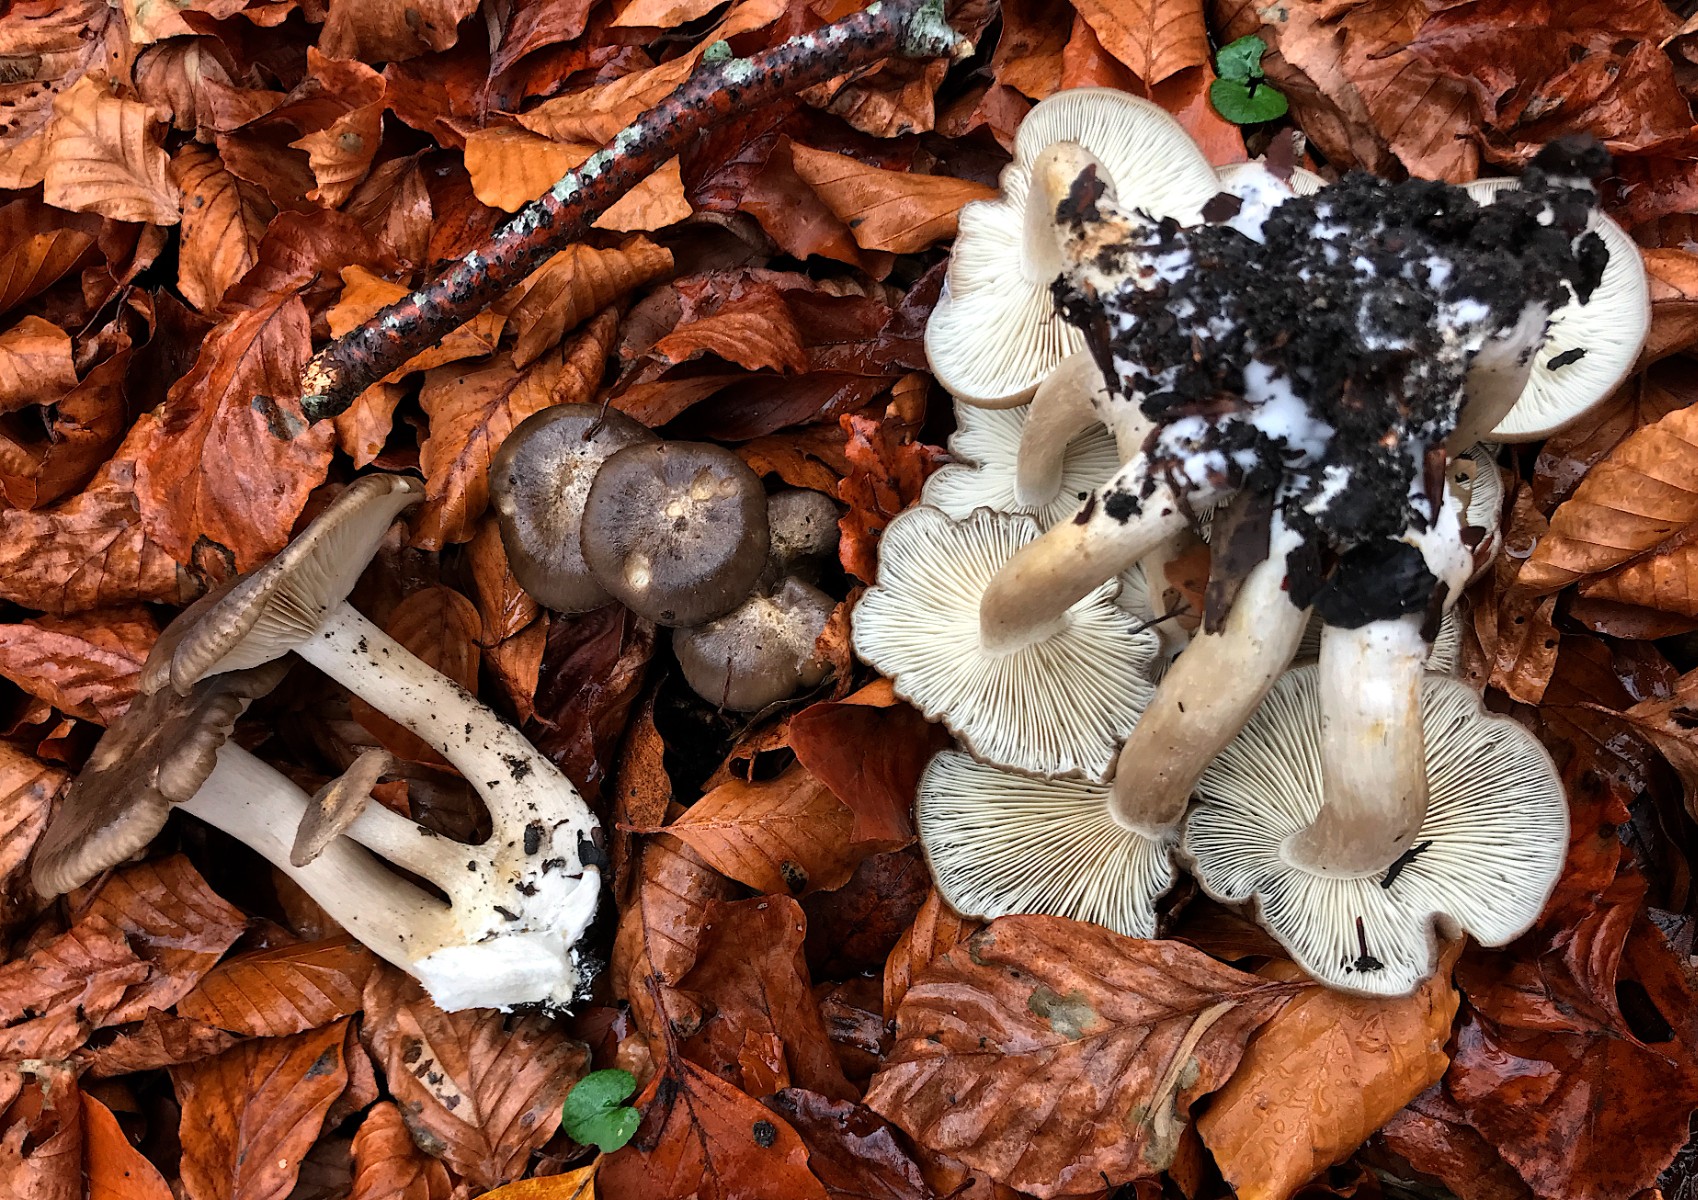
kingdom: Fungi
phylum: Basidiomycota
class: Agaricomycetes
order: Agaricales
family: Lyophyllaceae
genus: Lyophyllum
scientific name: Lyophyllum decastes
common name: Clustered domecap
